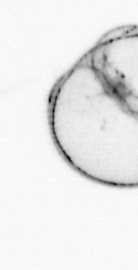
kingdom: Animalia
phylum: Chaetognatha
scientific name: Chaetognatha
